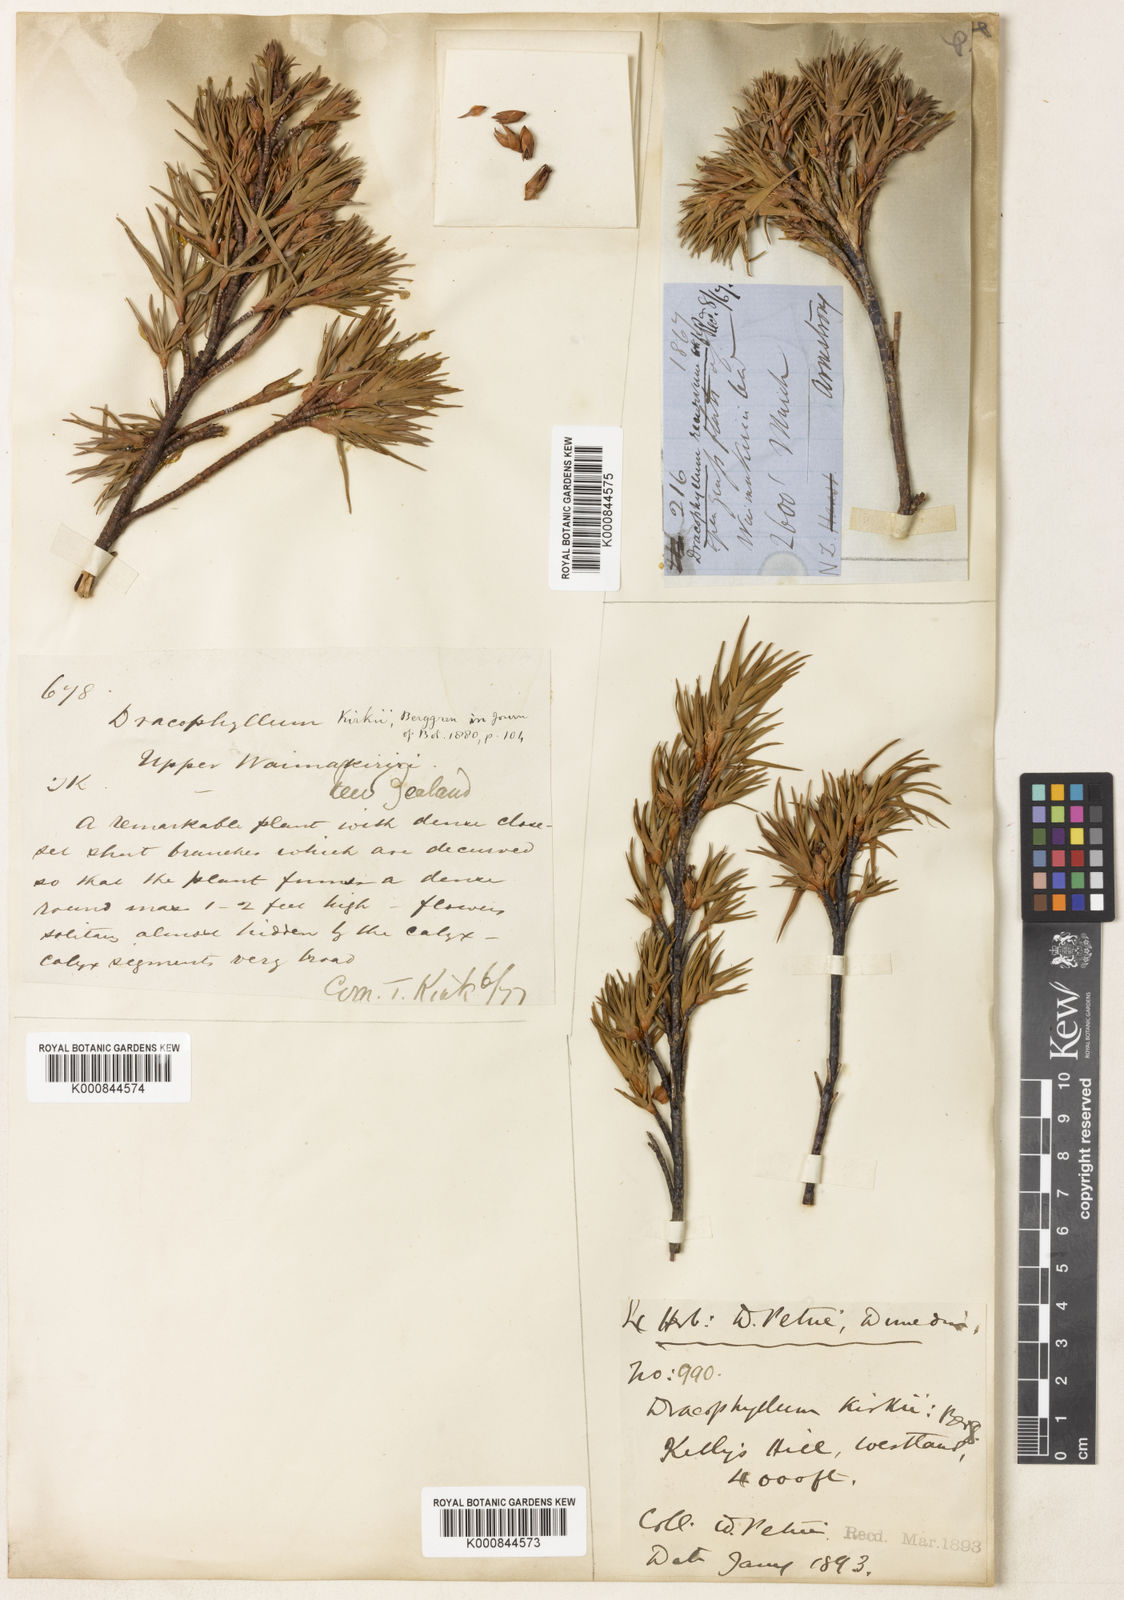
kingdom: Plantae
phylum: Tracheophyta
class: Magnoliopsida
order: Ericales
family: Ericaceae
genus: Dracophyllum
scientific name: Dracophyllum kirkii
